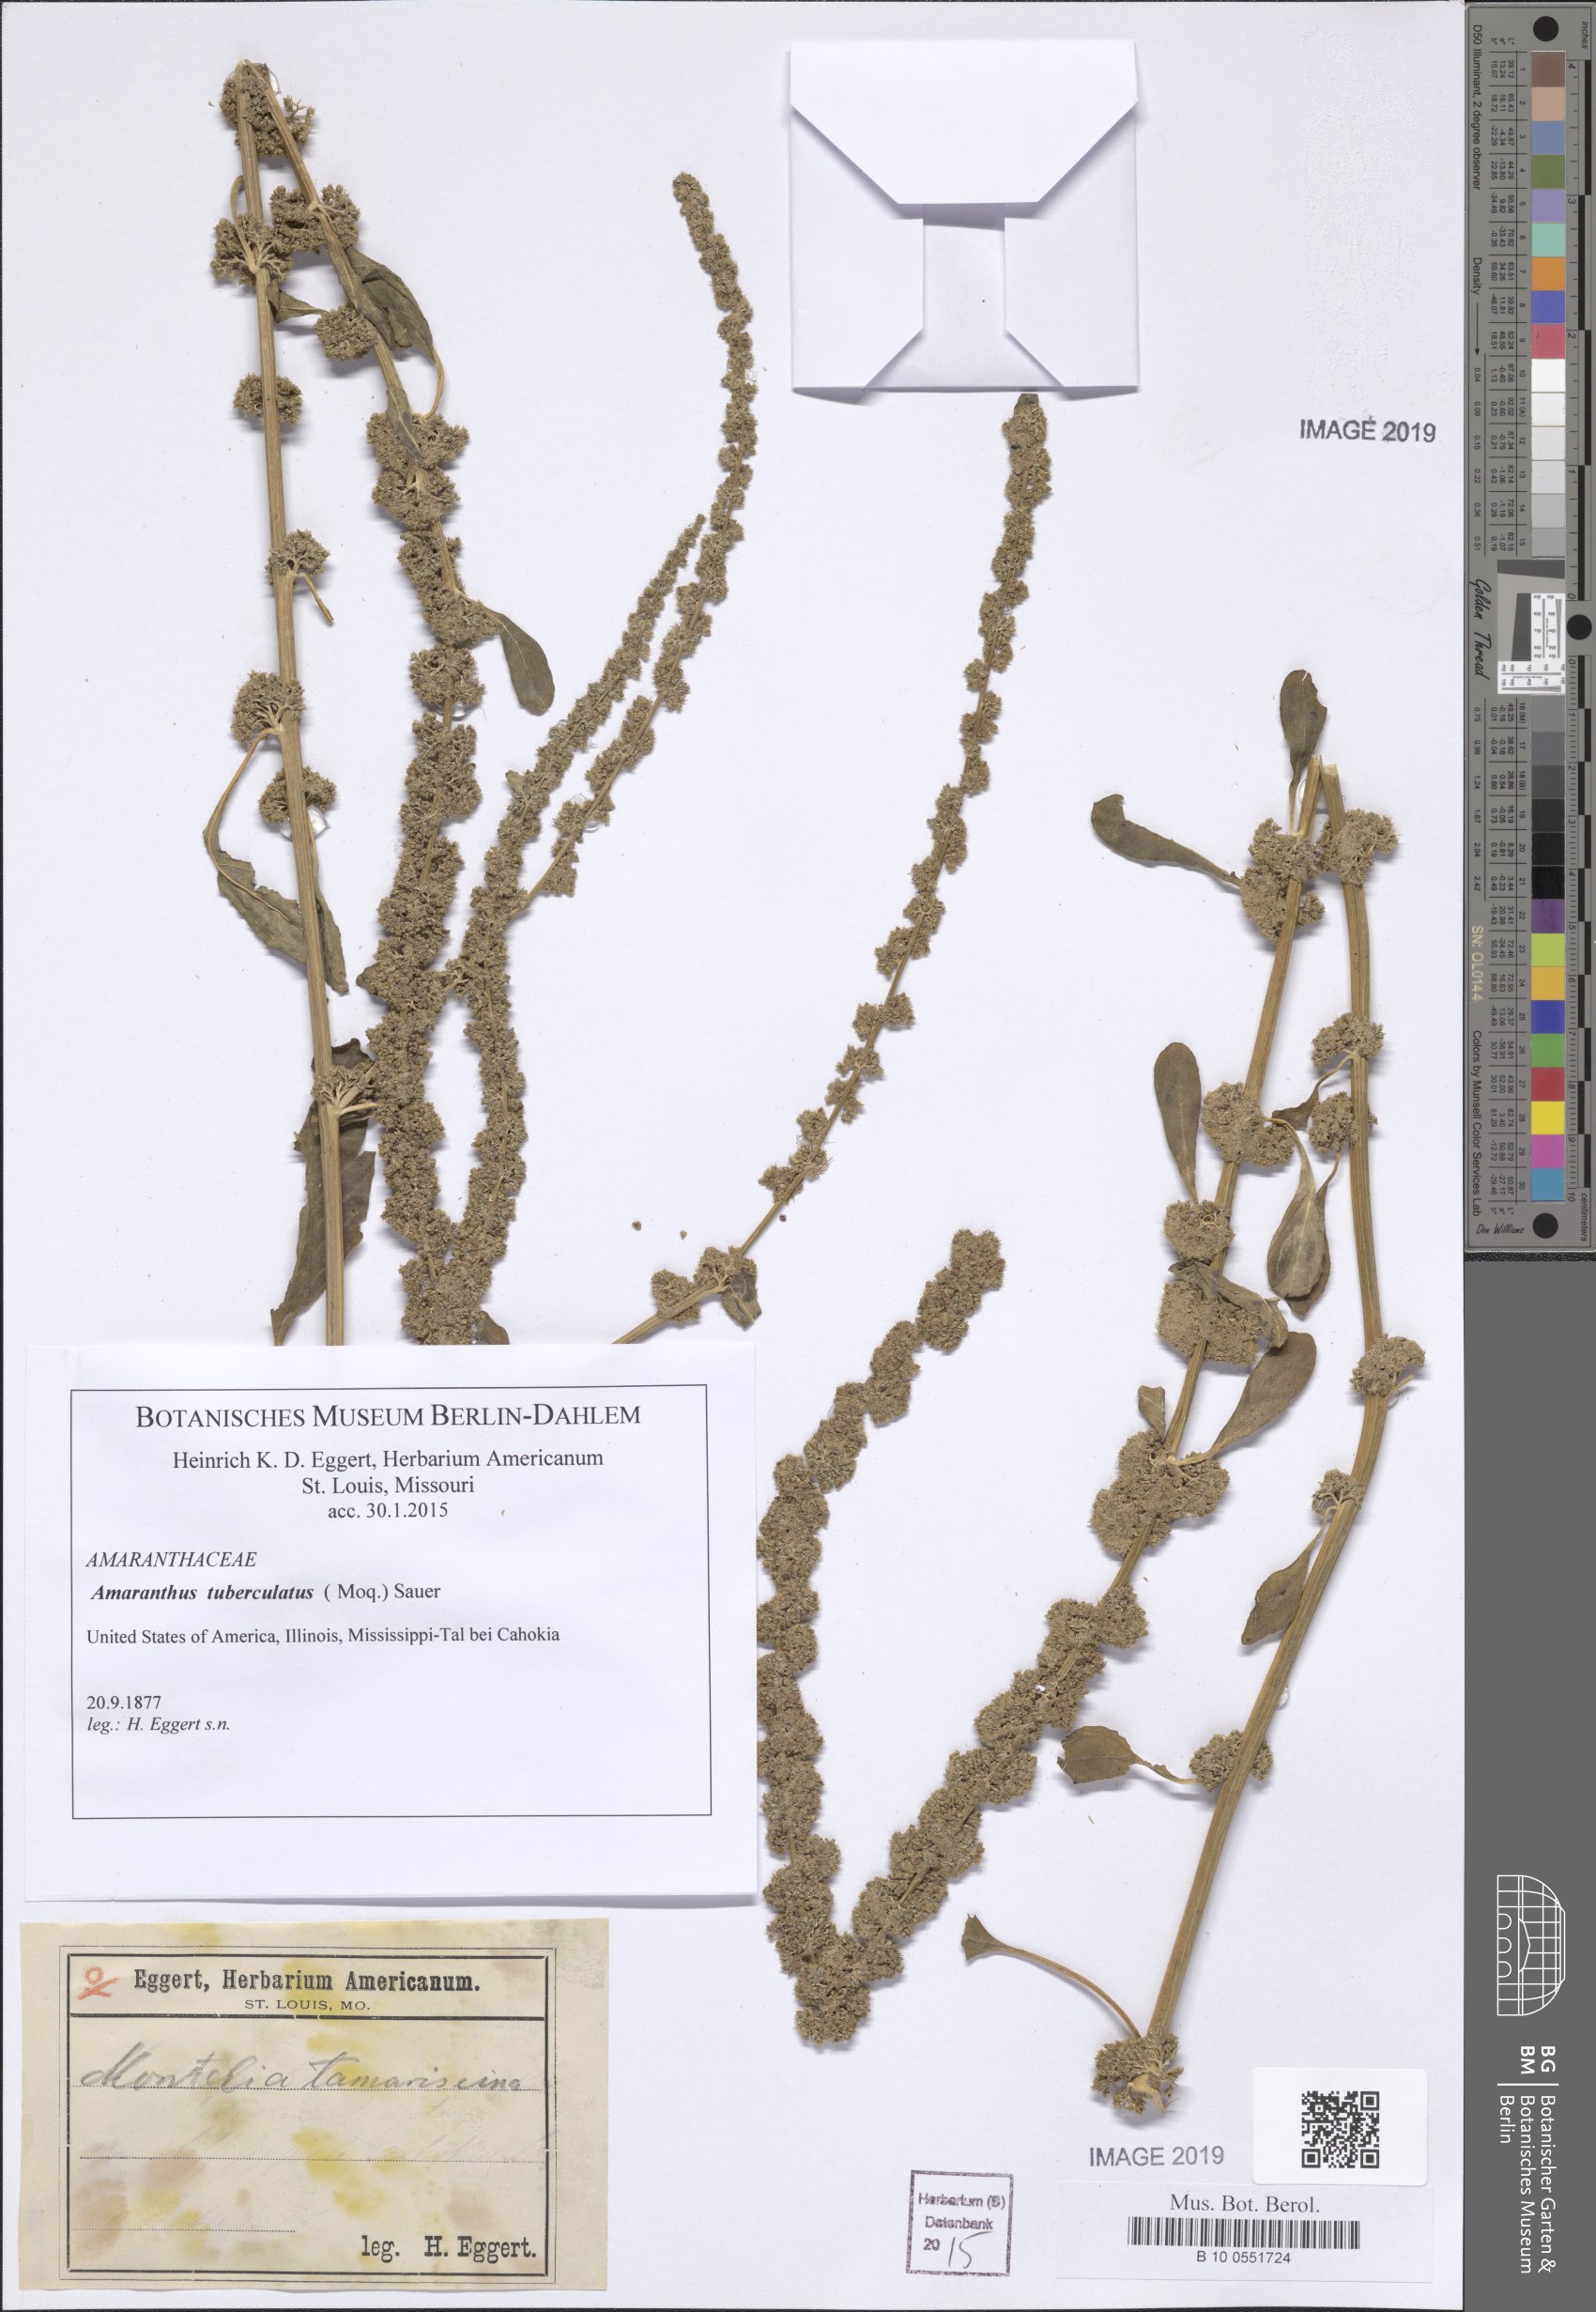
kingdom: Plantae
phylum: Tracheophyta
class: Magnoliopsida
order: Caryophyllales
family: Amaranthaceae
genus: Amaranthus
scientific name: Amaranthus tuberculatus
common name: Rough-fruit amaranth
